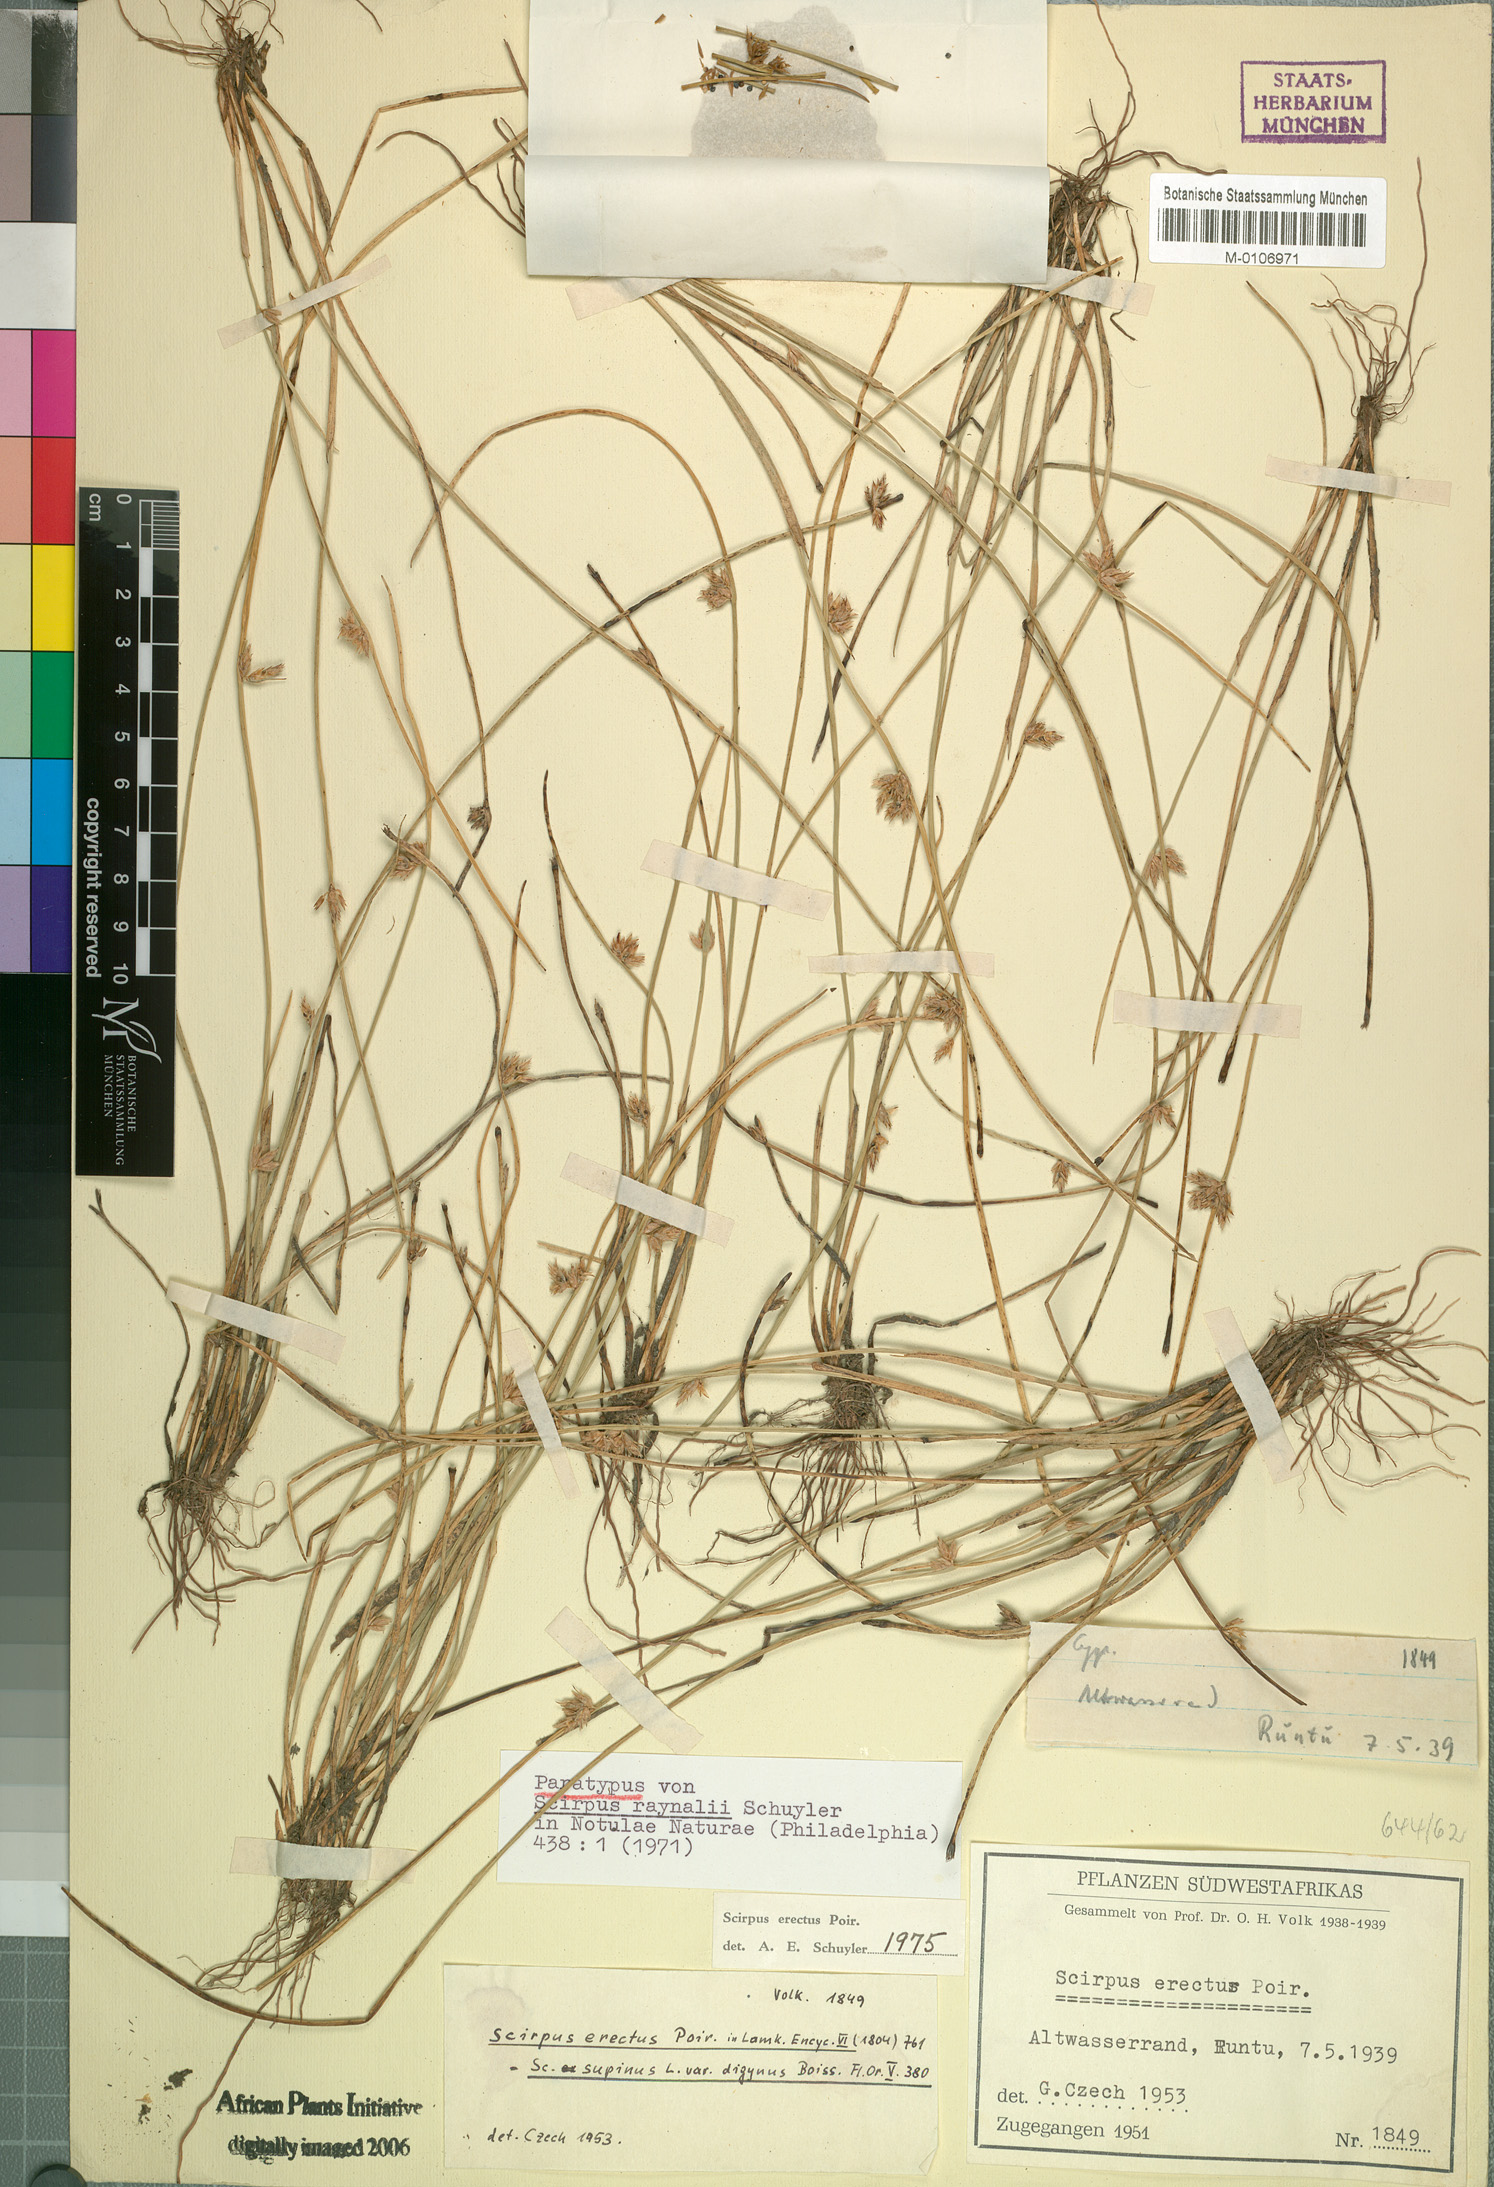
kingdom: Plantae
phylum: Tracheophyta
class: Liliopsida
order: Poales
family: Cyperaceae
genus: Schoenoplectiella
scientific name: Schoenoplectiella erecta
